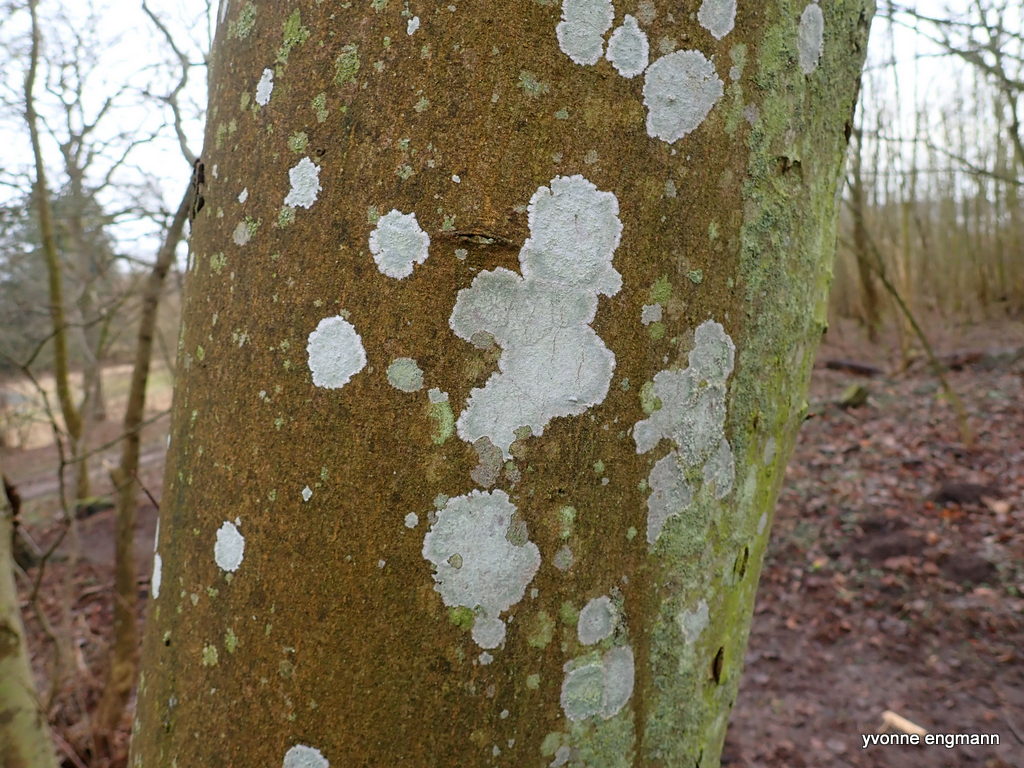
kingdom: Fungi
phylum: Ascomycota
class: Lecanoromycetes
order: Ostropales
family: Phlyctidaceae
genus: Phlyctis
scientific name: Phlyctis argena
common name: almindelig sølvlav
